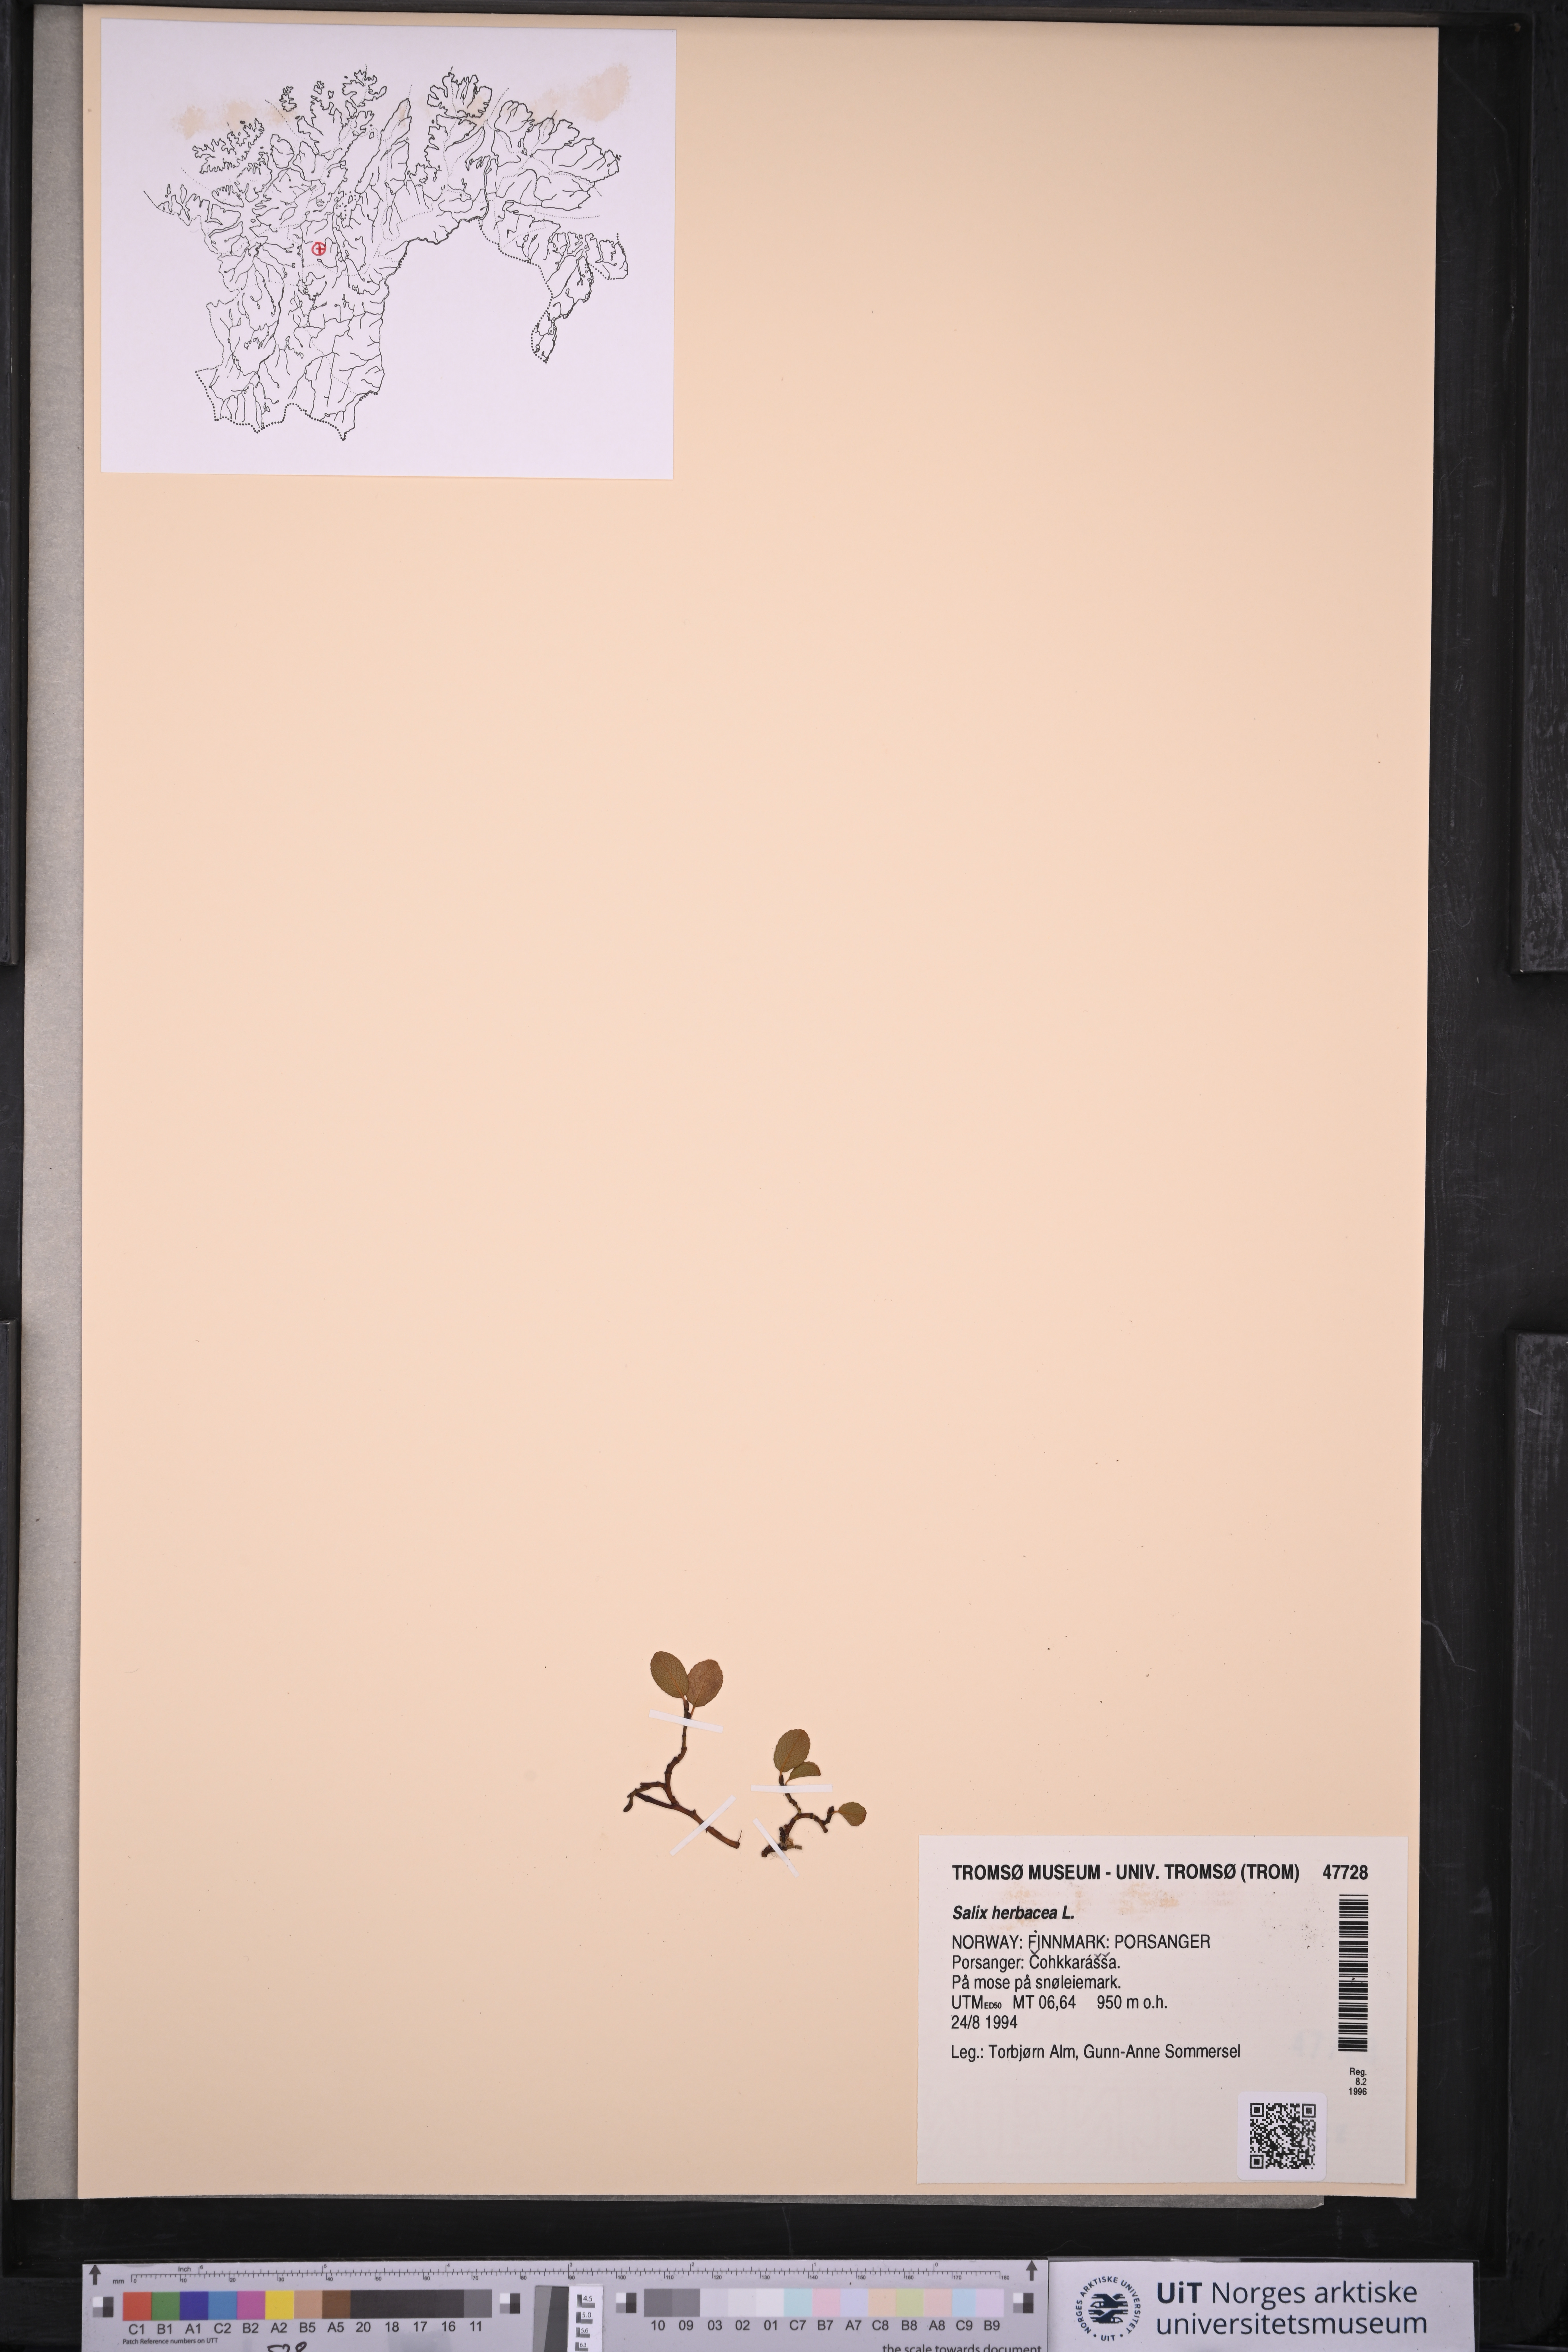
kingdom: Plantae
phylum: Tracheophyta
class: Magnoliopsida
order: Malpighiales
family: Salicaceae
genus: Salix
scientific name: Salix herbacea
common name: Dwarf willow
